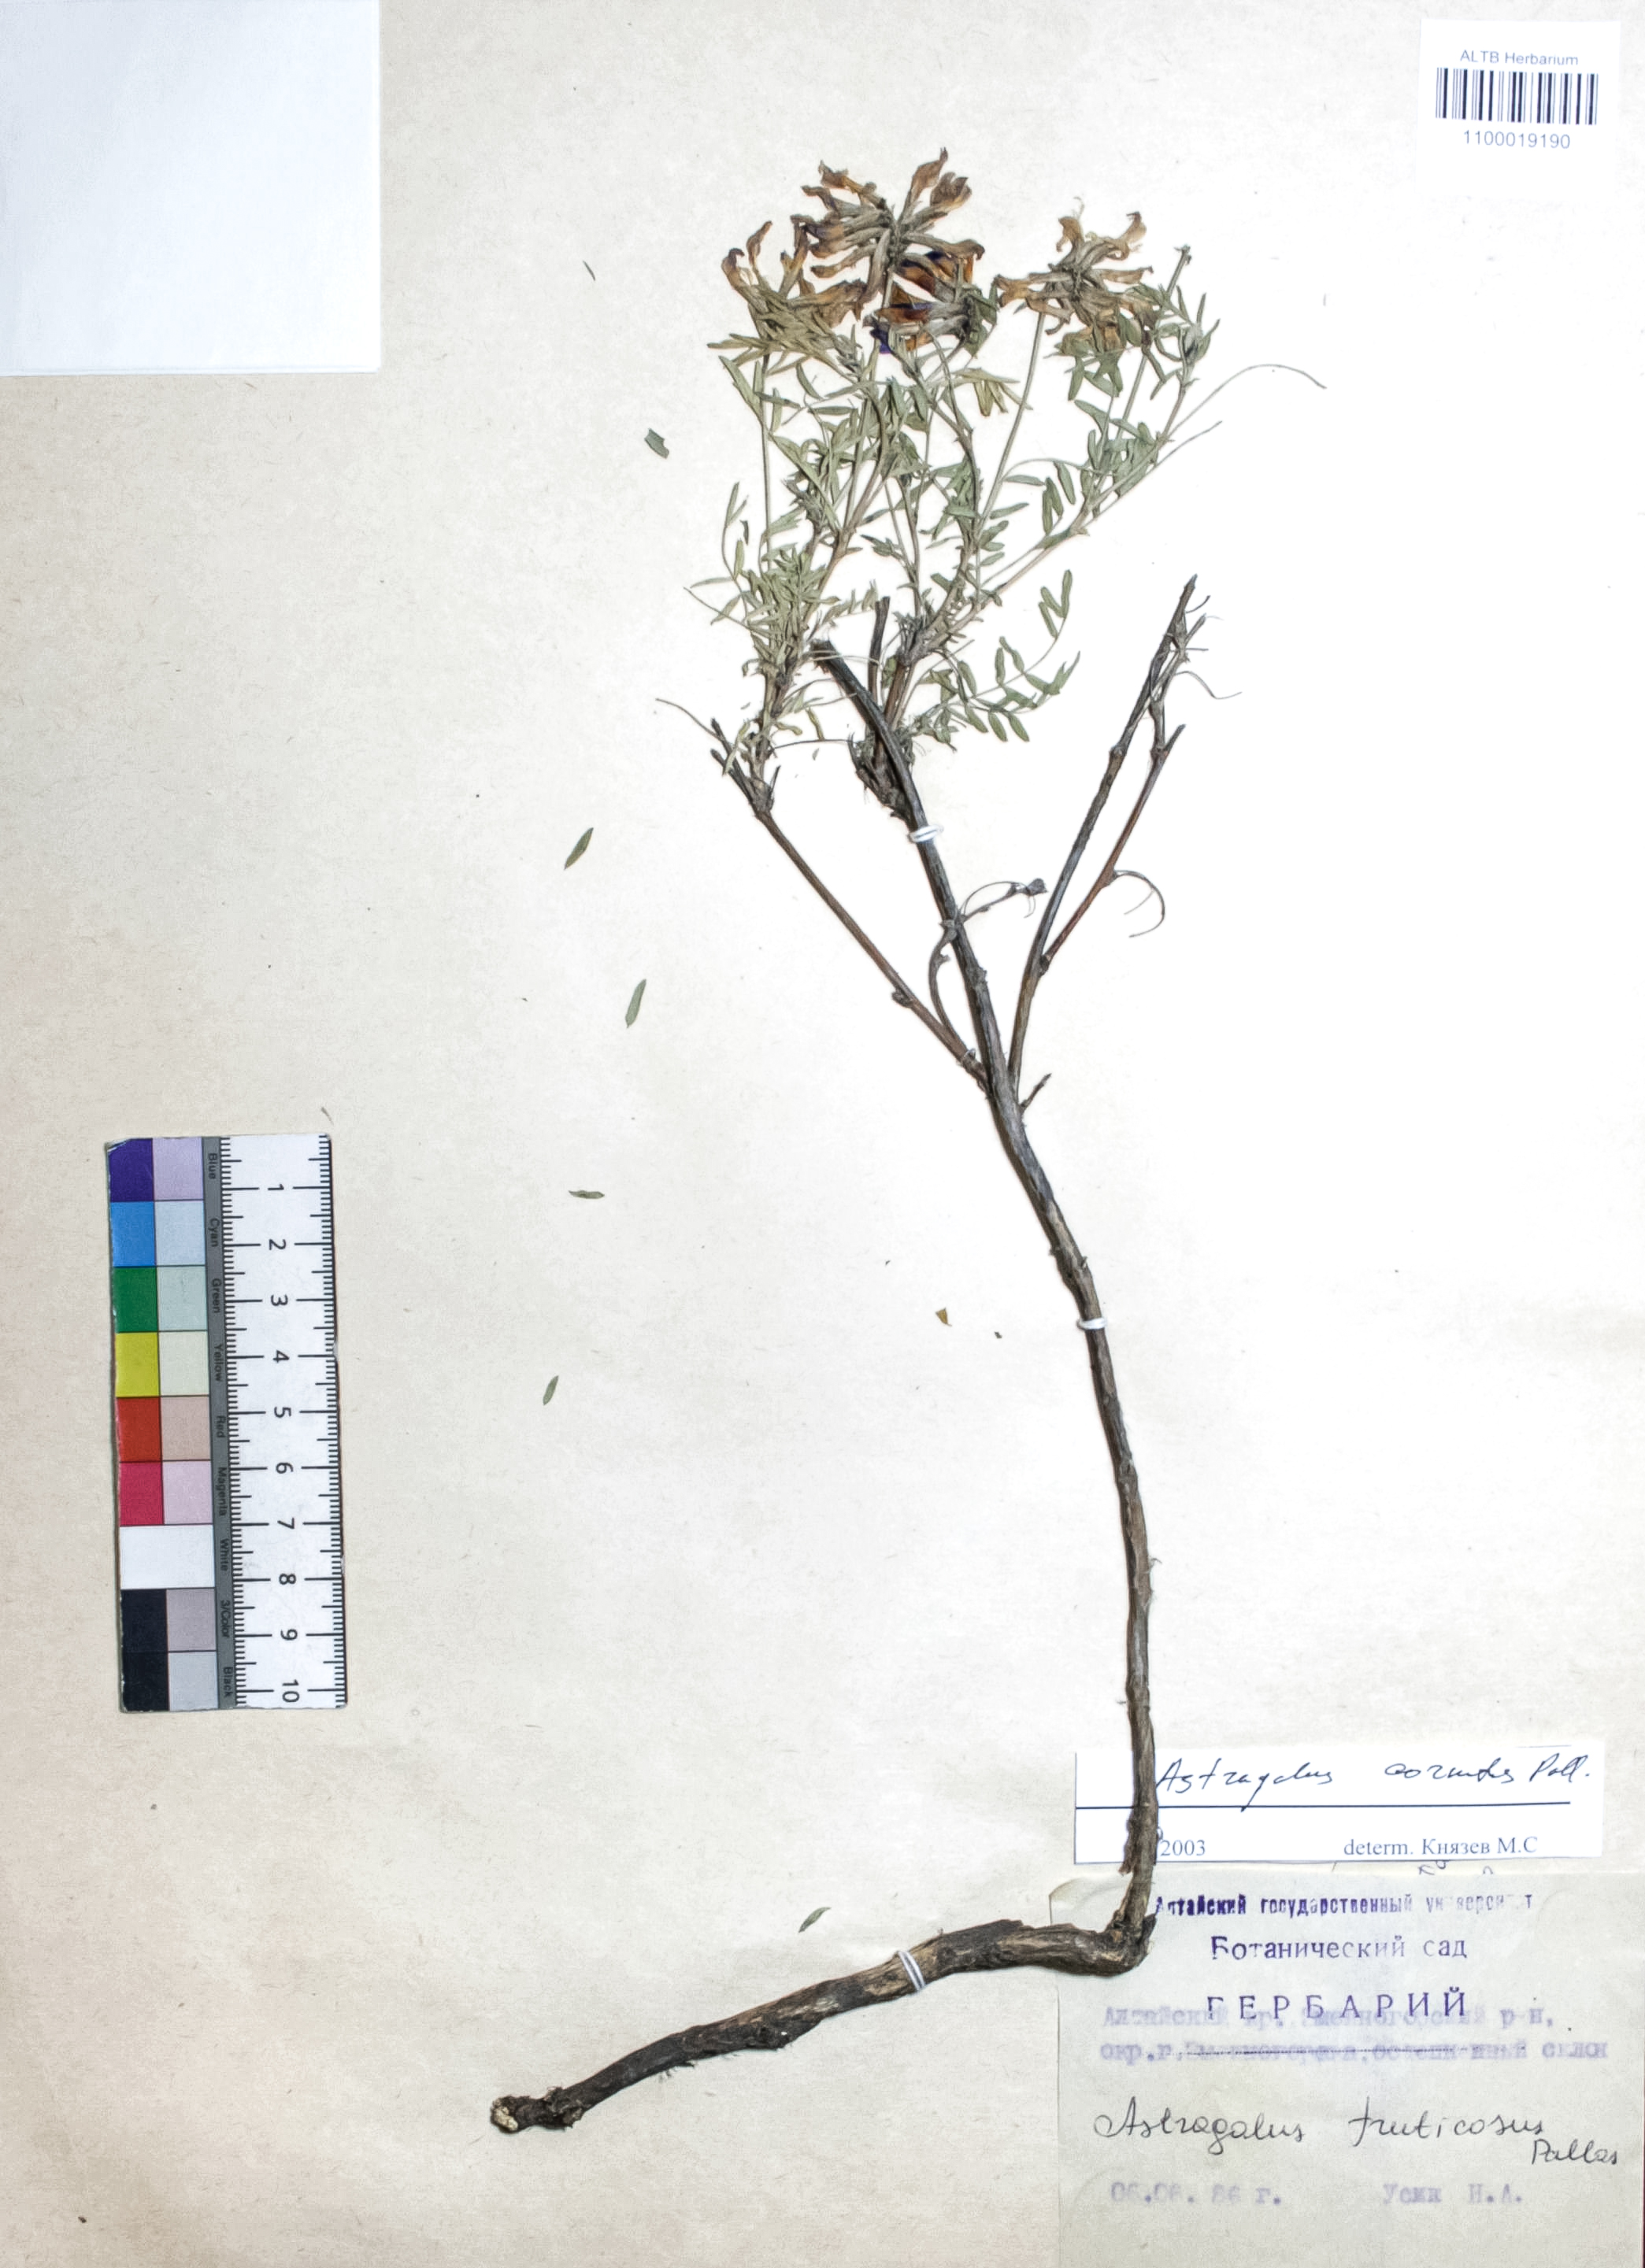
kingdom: Plantae
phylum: Tracheophyta
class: Magnoliopsida
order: Fabales
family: Fabaceae
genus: Astragalus
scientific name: Astragalus cornutus
